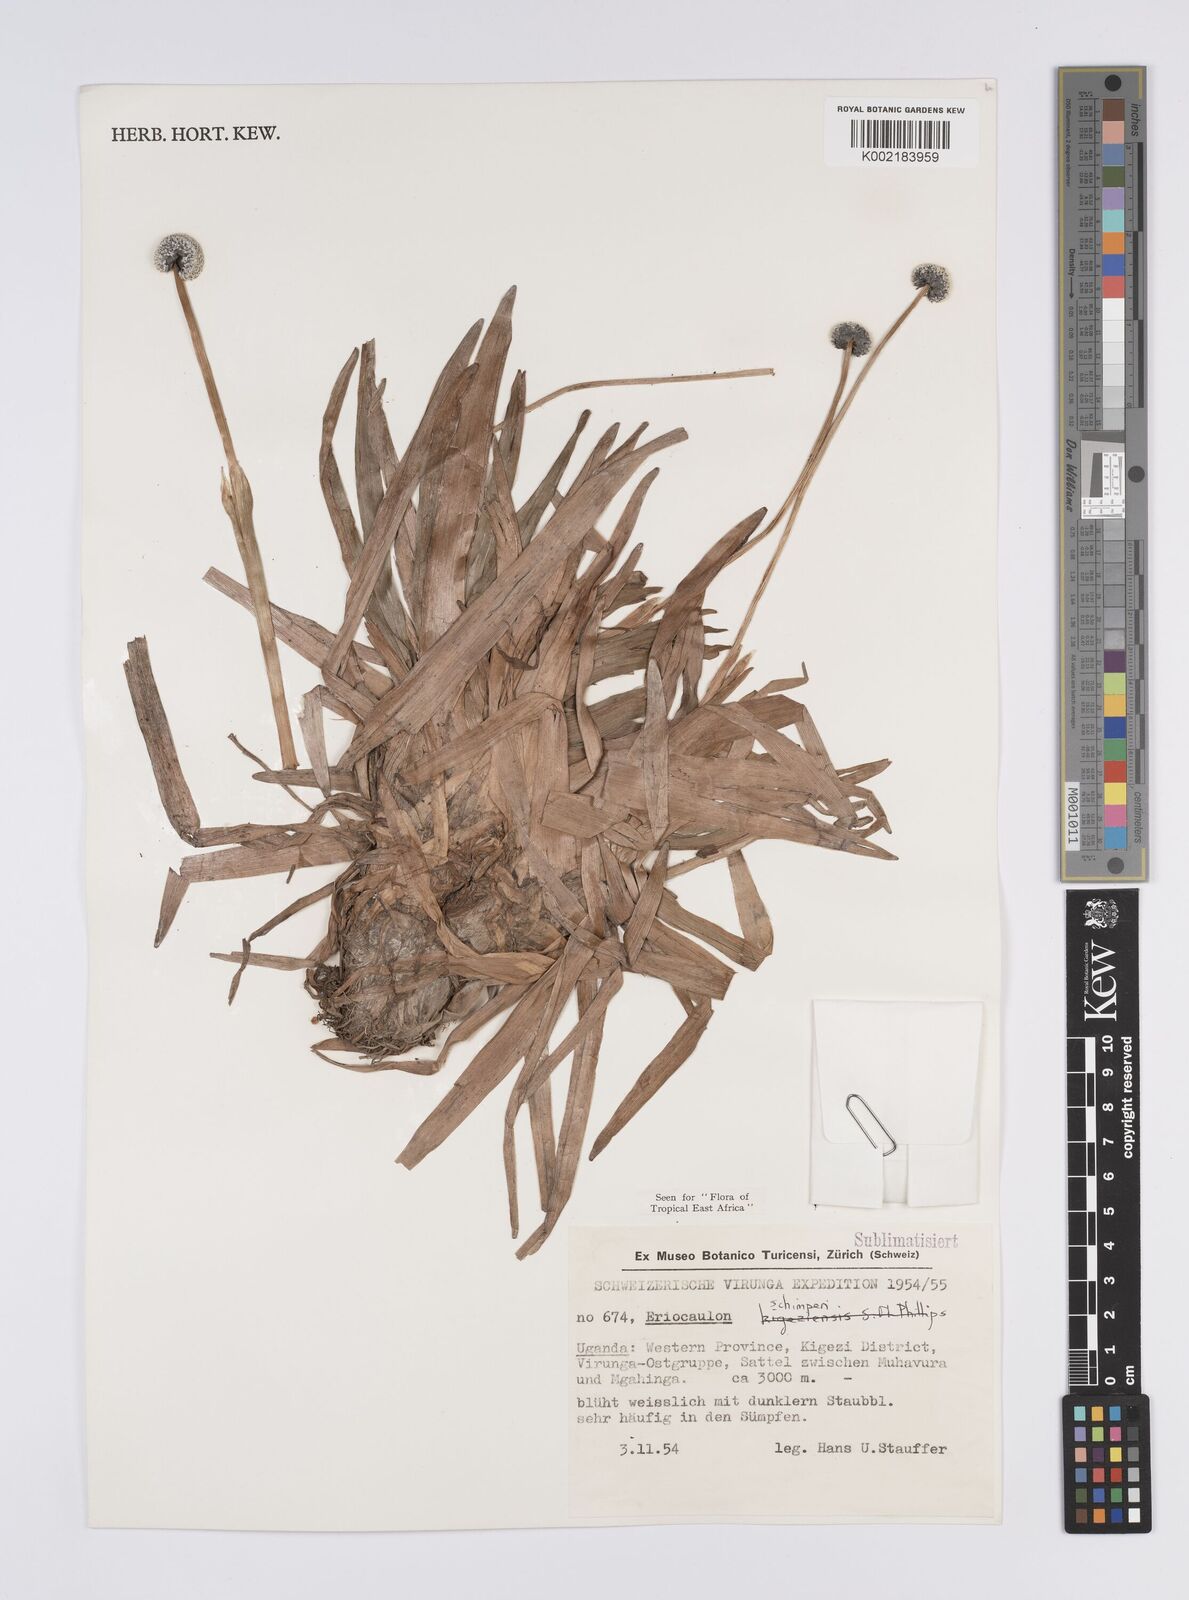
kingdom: Plantae
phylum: Tracheophyta
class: Liliopsida
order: Poales
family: Eriocaulaceae
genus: Eriocaulon
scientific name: Eriocaulon schimperi
